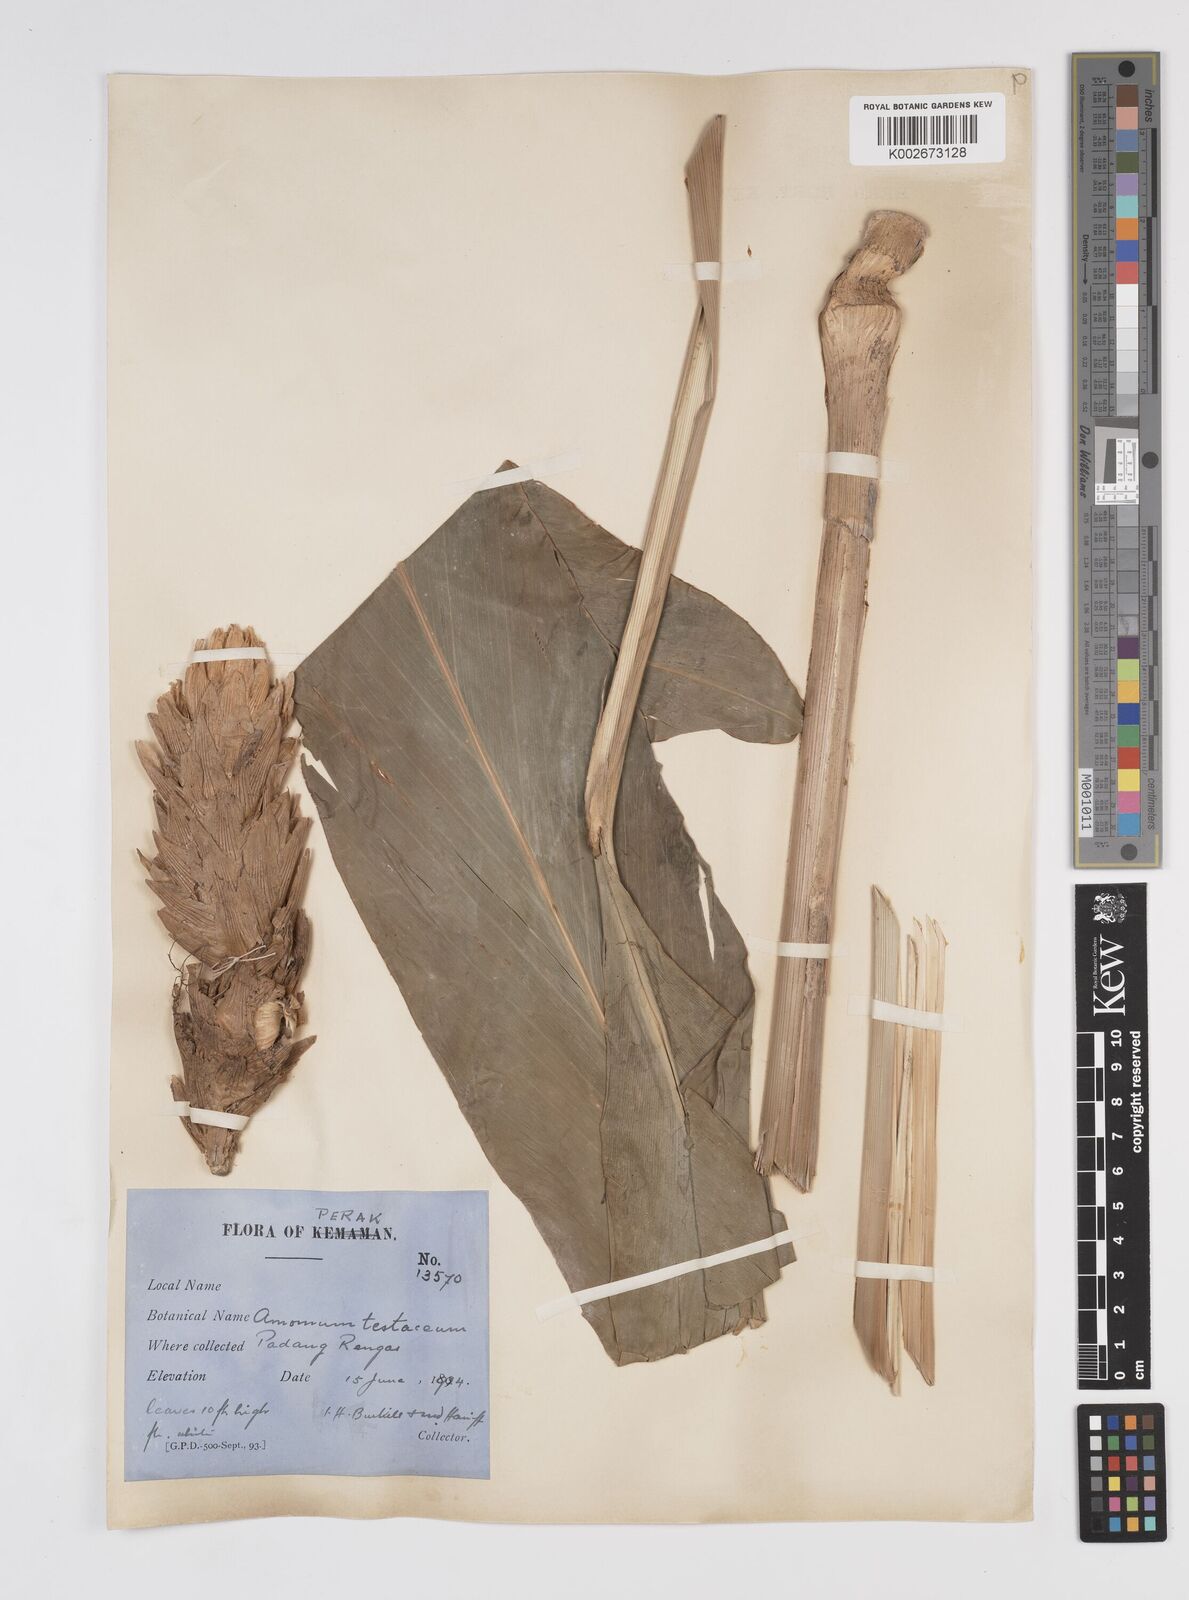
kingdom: Plantae
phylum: Tracheophyta
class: Liliopsida
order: Zingiberales
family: Zingiberaceae
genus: Wurfbainia
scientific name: Wurfbainia testacea
